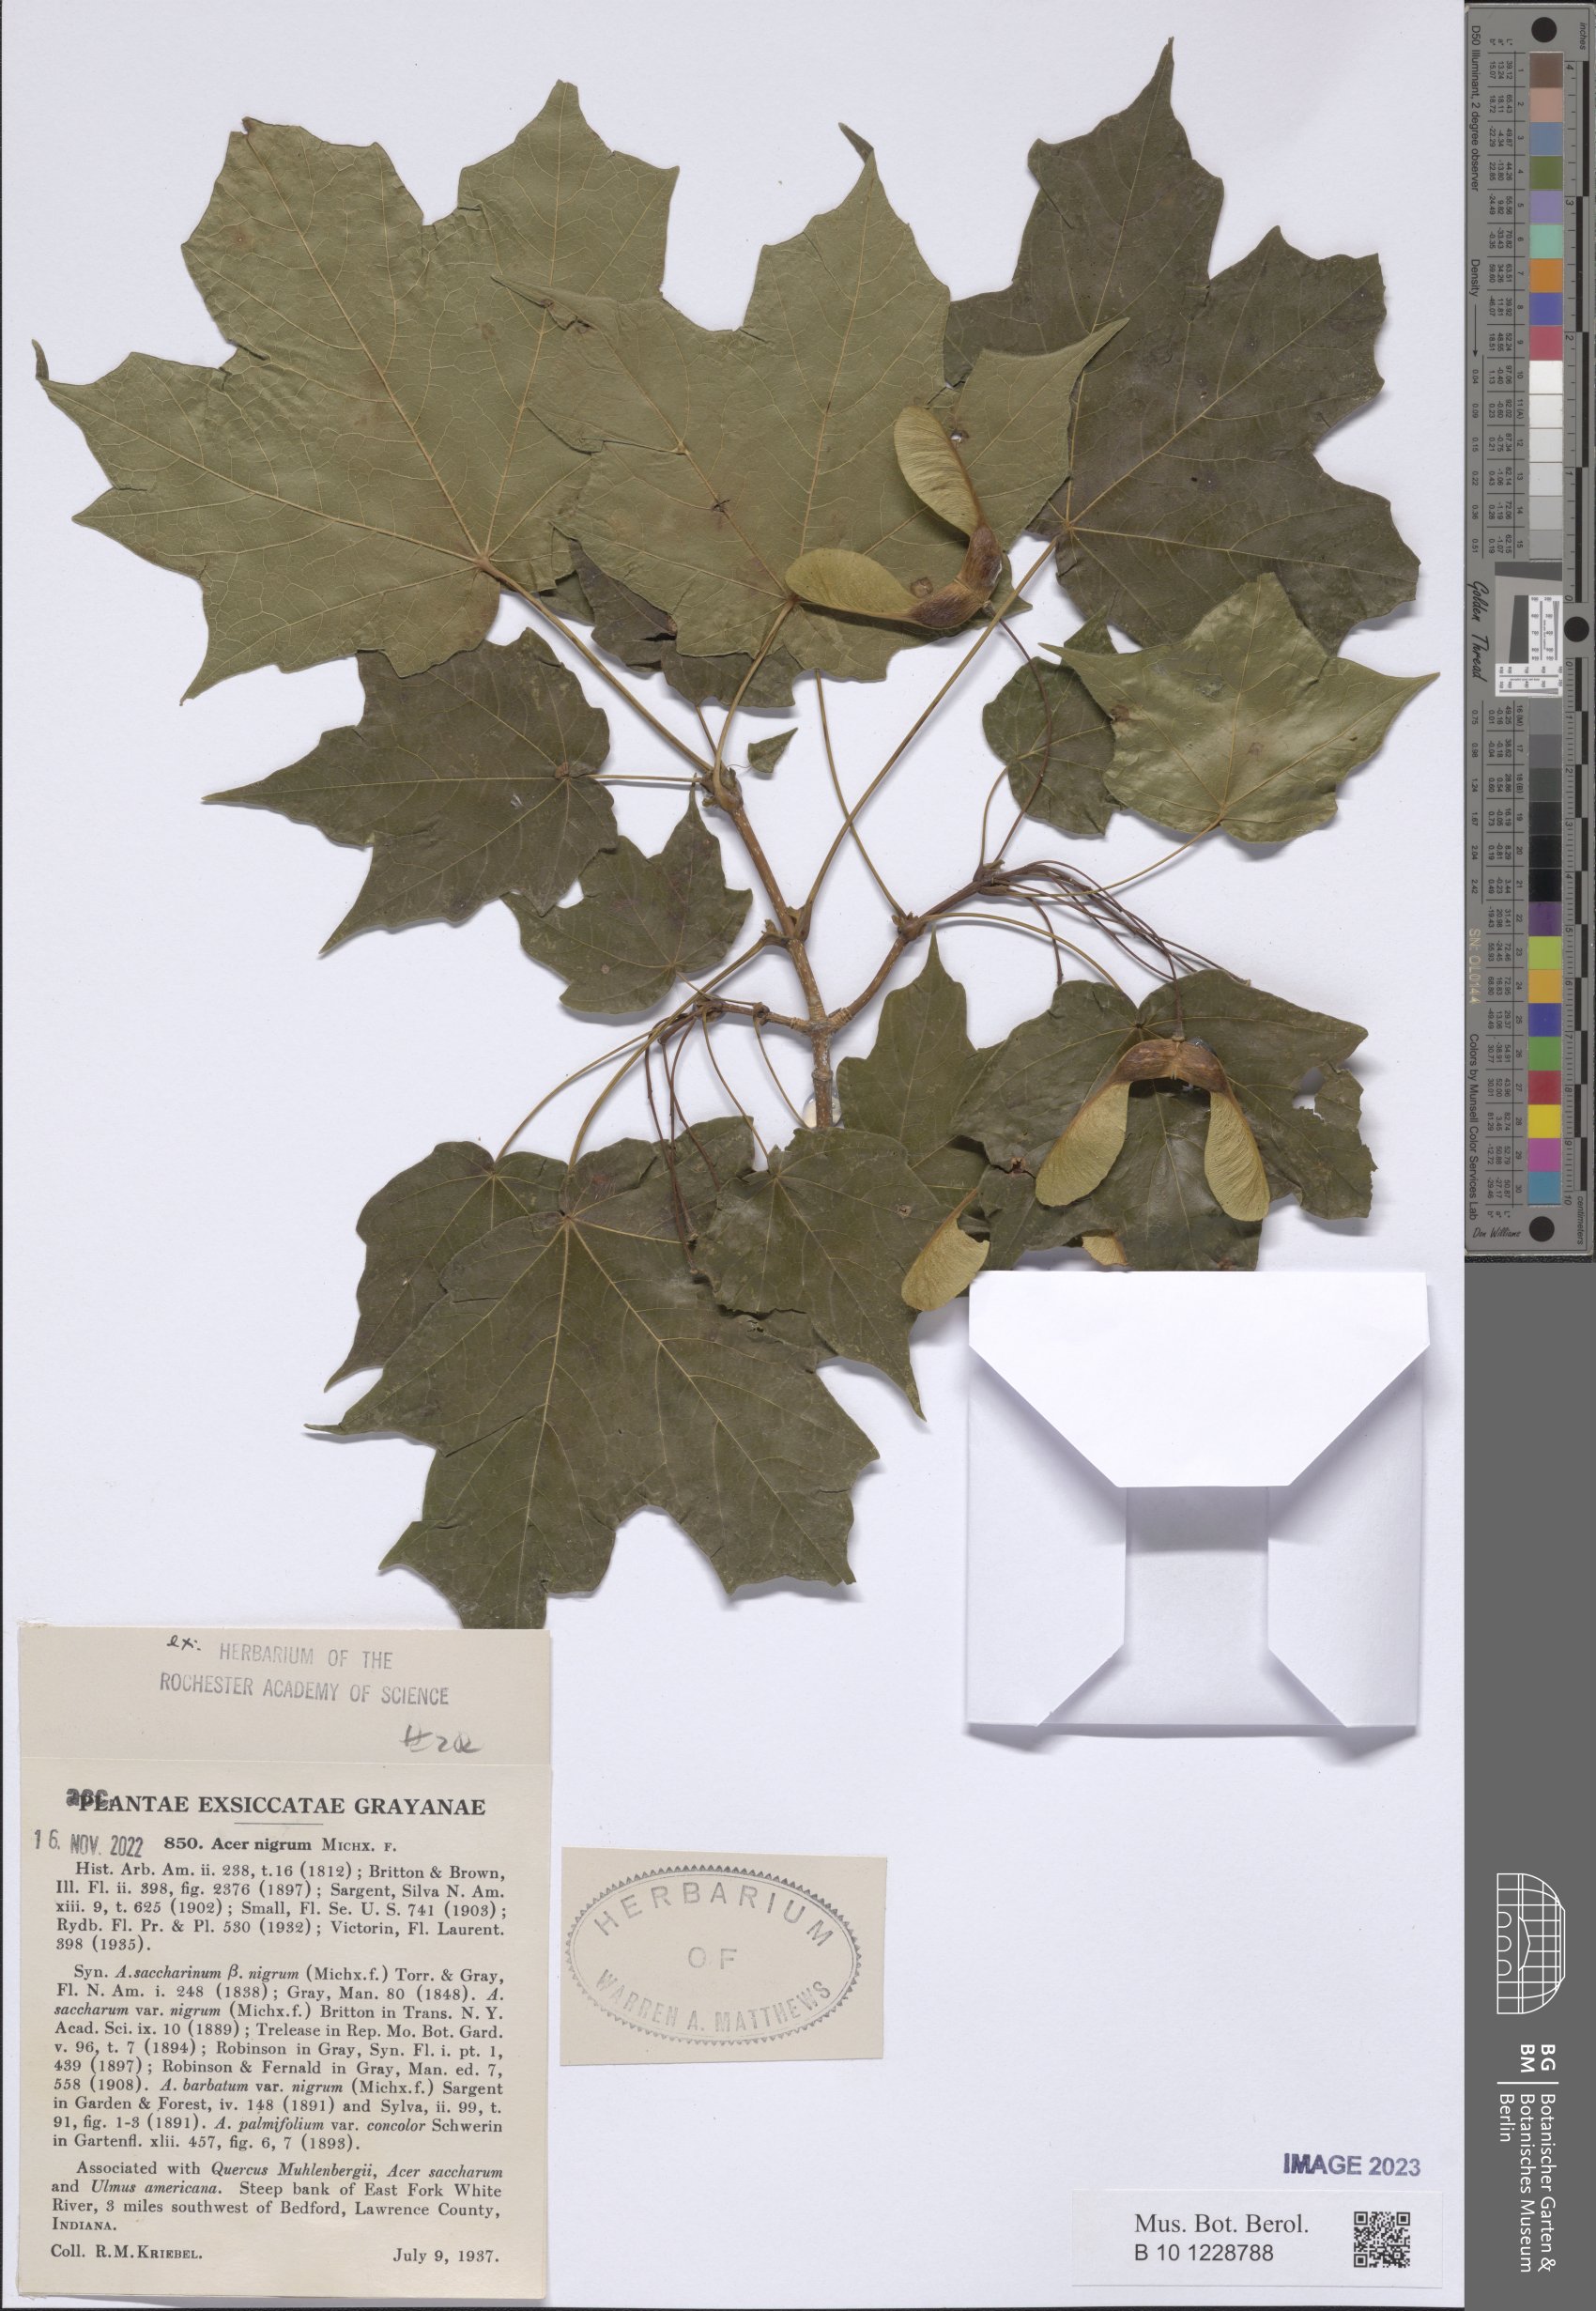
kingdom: Plantae
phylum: Tracheophyta
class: Magnoliopsida
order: Sapindales
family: Sapindaceae
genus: Acer
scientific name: Acer nigrum
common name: Black maple
